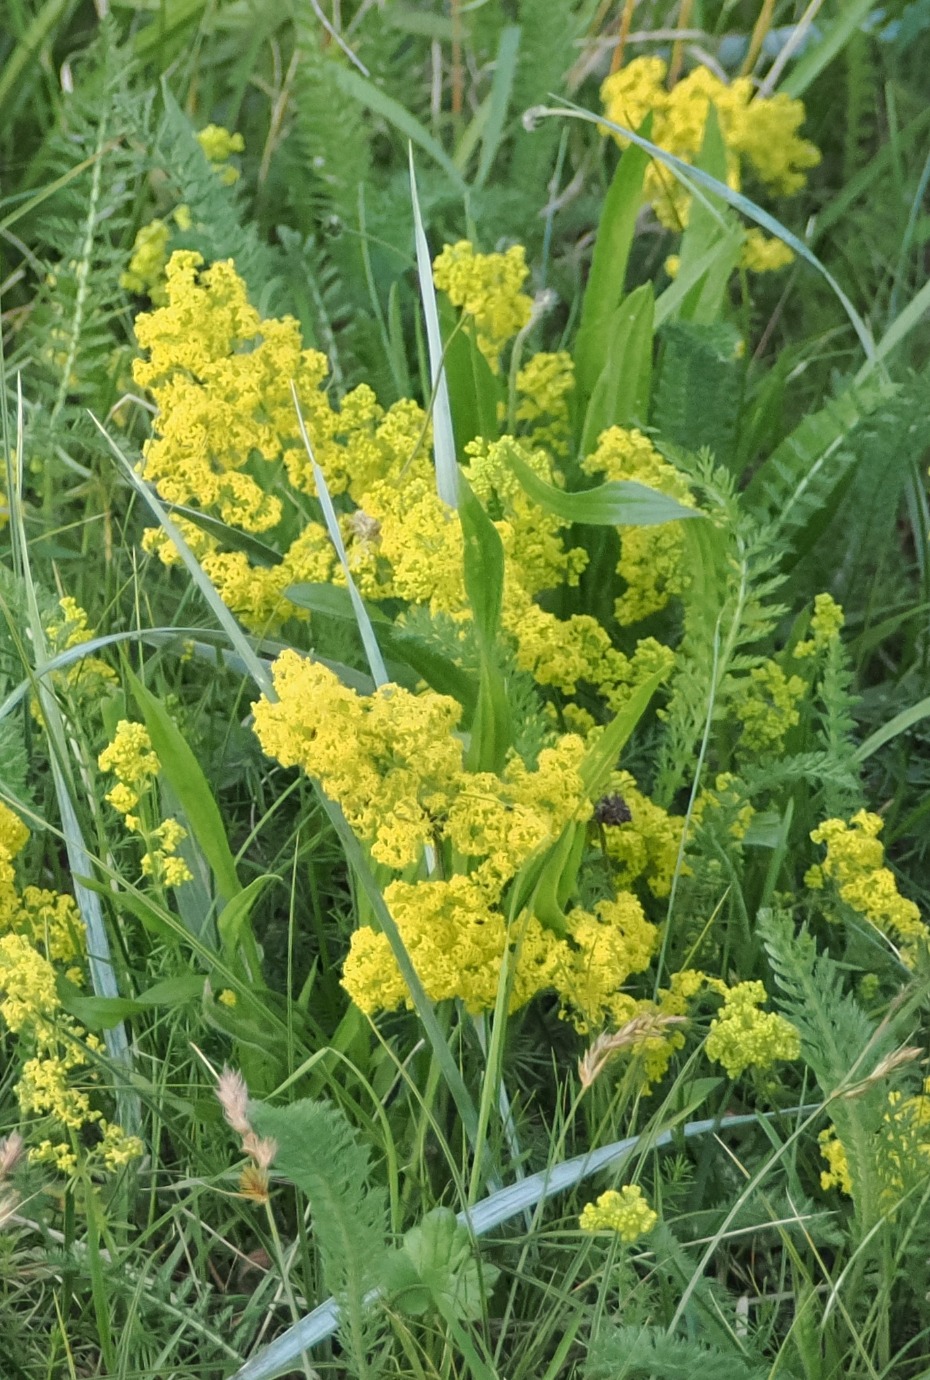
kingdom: Plantae
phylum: Tracheophyta
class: Magnoliopsida
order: Gentianales
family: Rubiaceae
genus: Galium
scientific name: Galium verum
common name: Gul snerre
